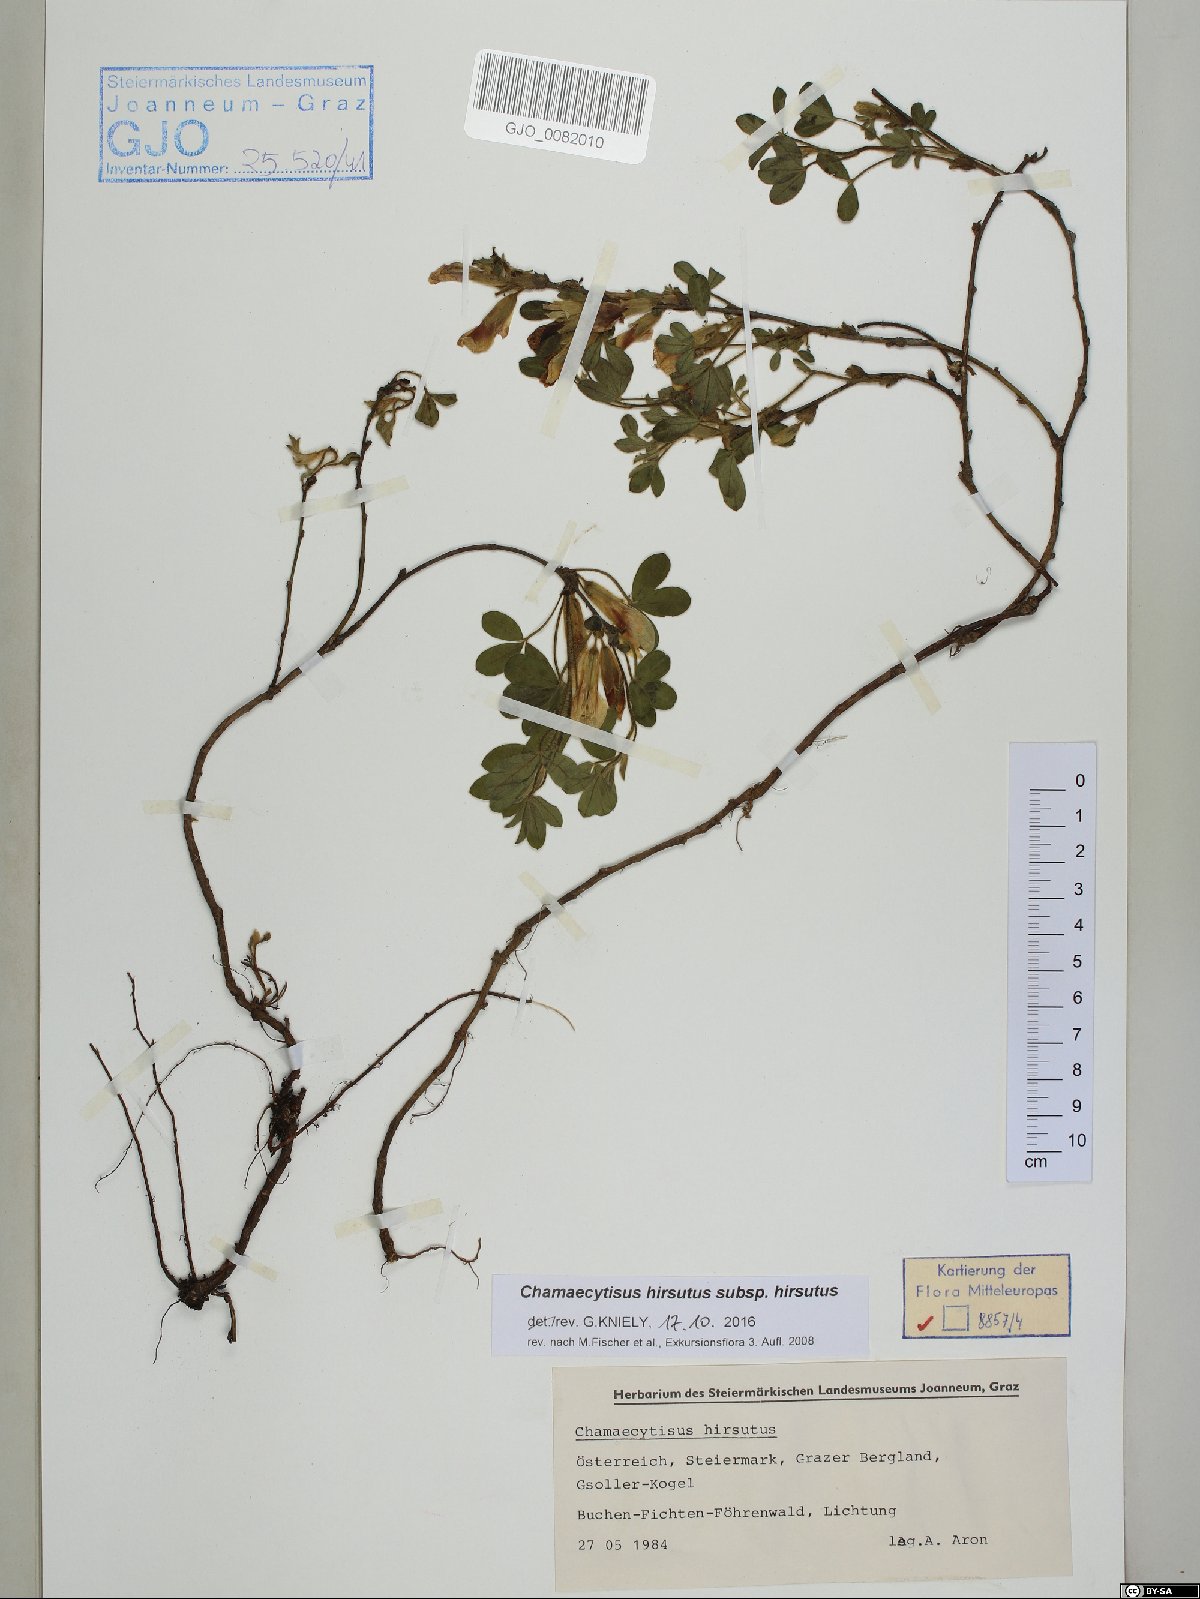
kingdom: Plantae
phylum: Tracheophyta
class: Magnoliopsida
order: Fabales
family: Fabaceae
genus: Chamaecytisus
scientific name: Chamaecytisus hirsutus
